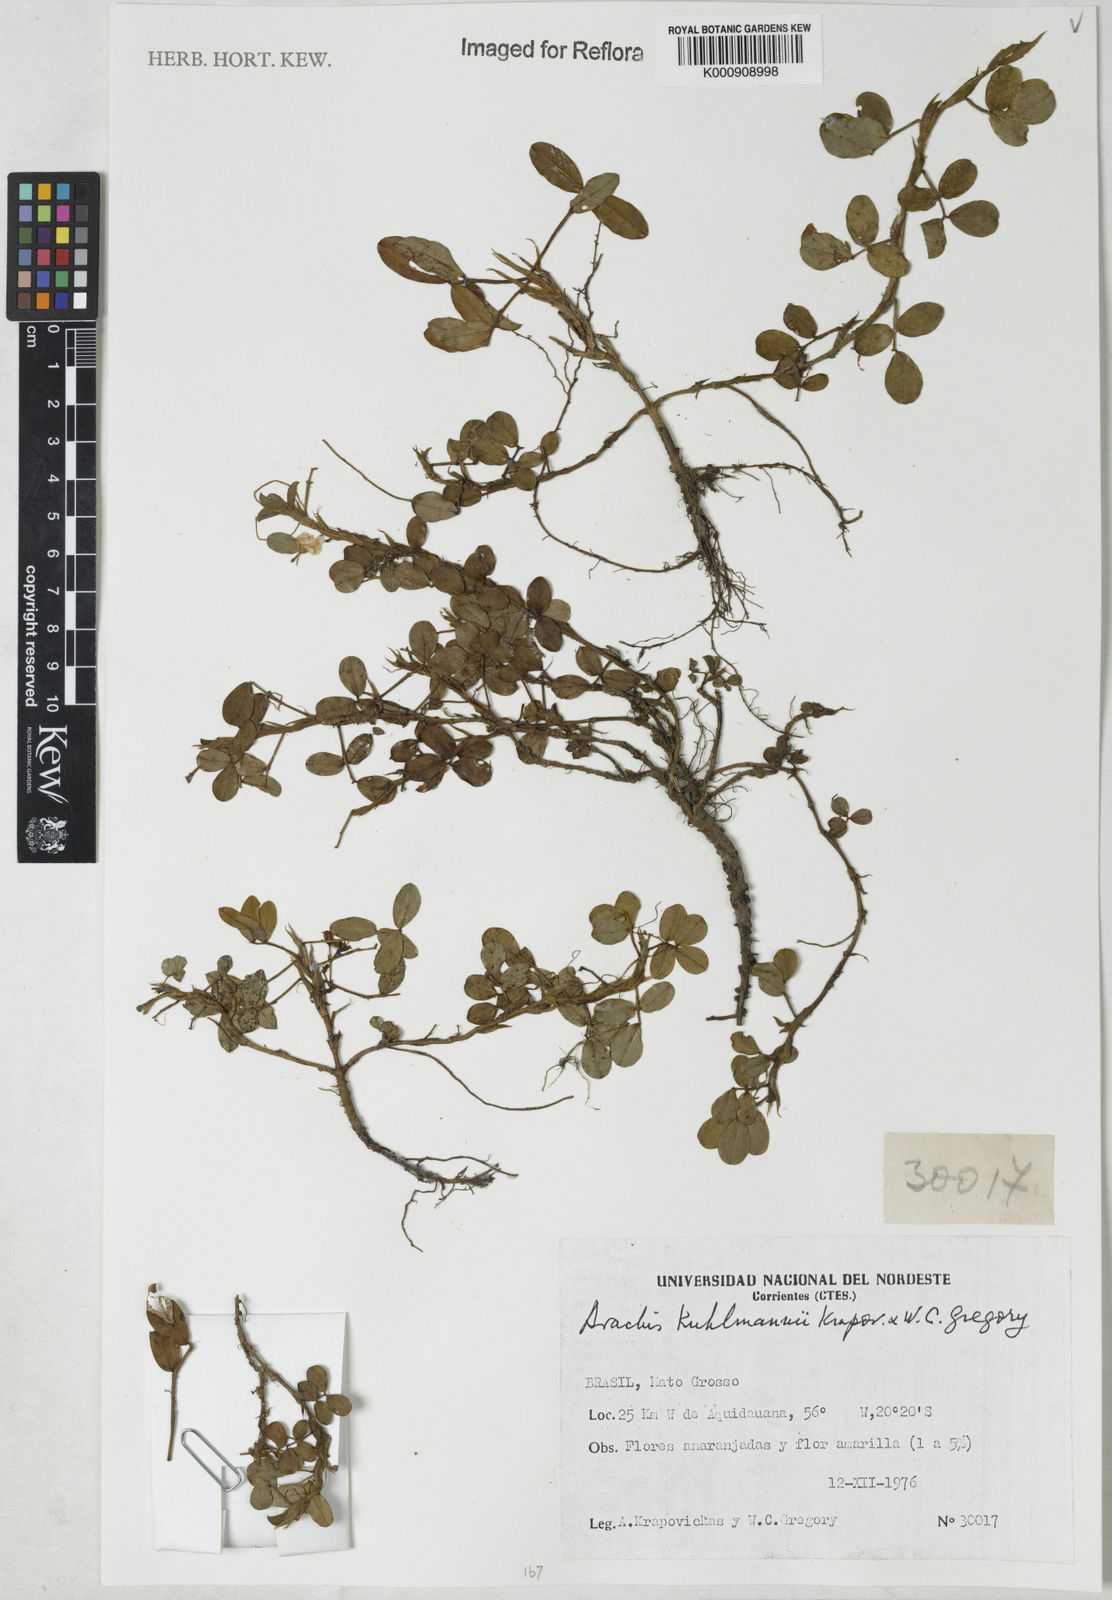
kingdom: Plantae
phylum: Tracheophyta
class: Magnoliopsida
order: Fabales
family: Fabaceae
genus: Arachis
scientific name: Arachis kuhlmannii
